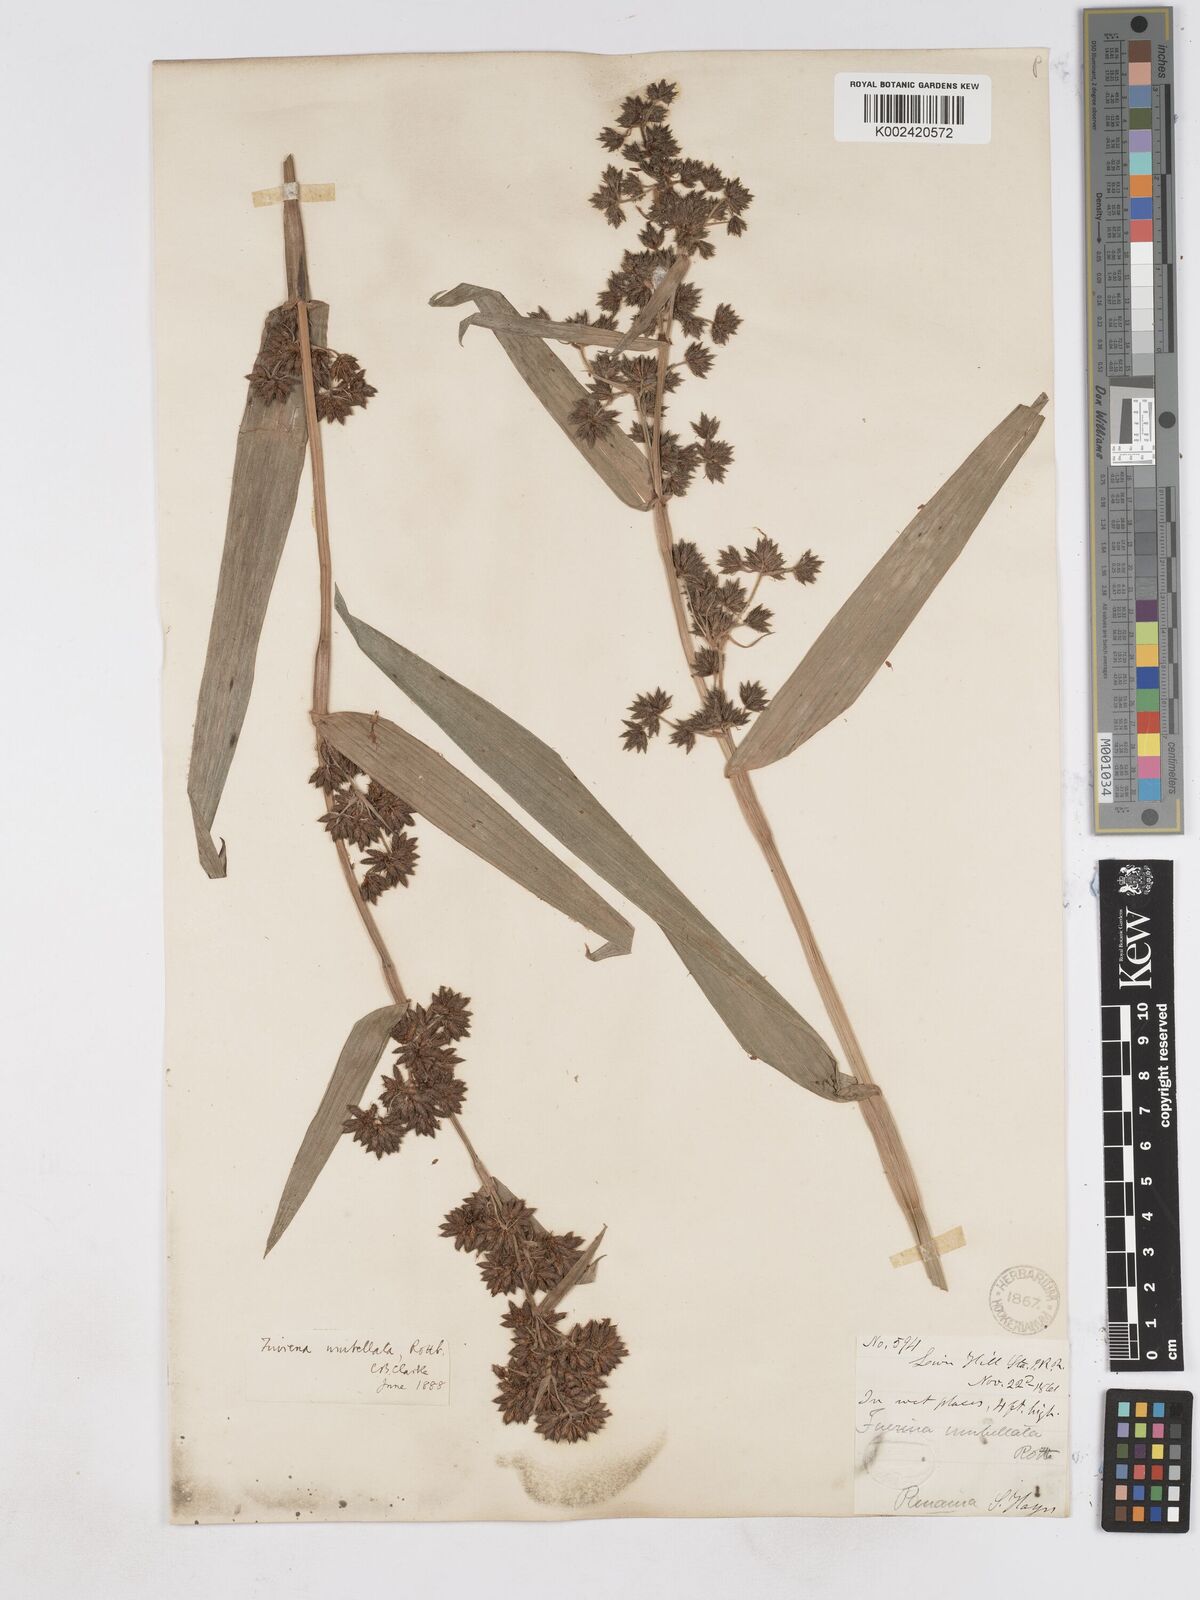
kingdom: Plantae
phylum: Tracheophyta
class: Liliopsida
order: Poales
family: Cyperaceae
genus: Fuirena
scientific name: Fuirena umbellata
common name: Yefen
